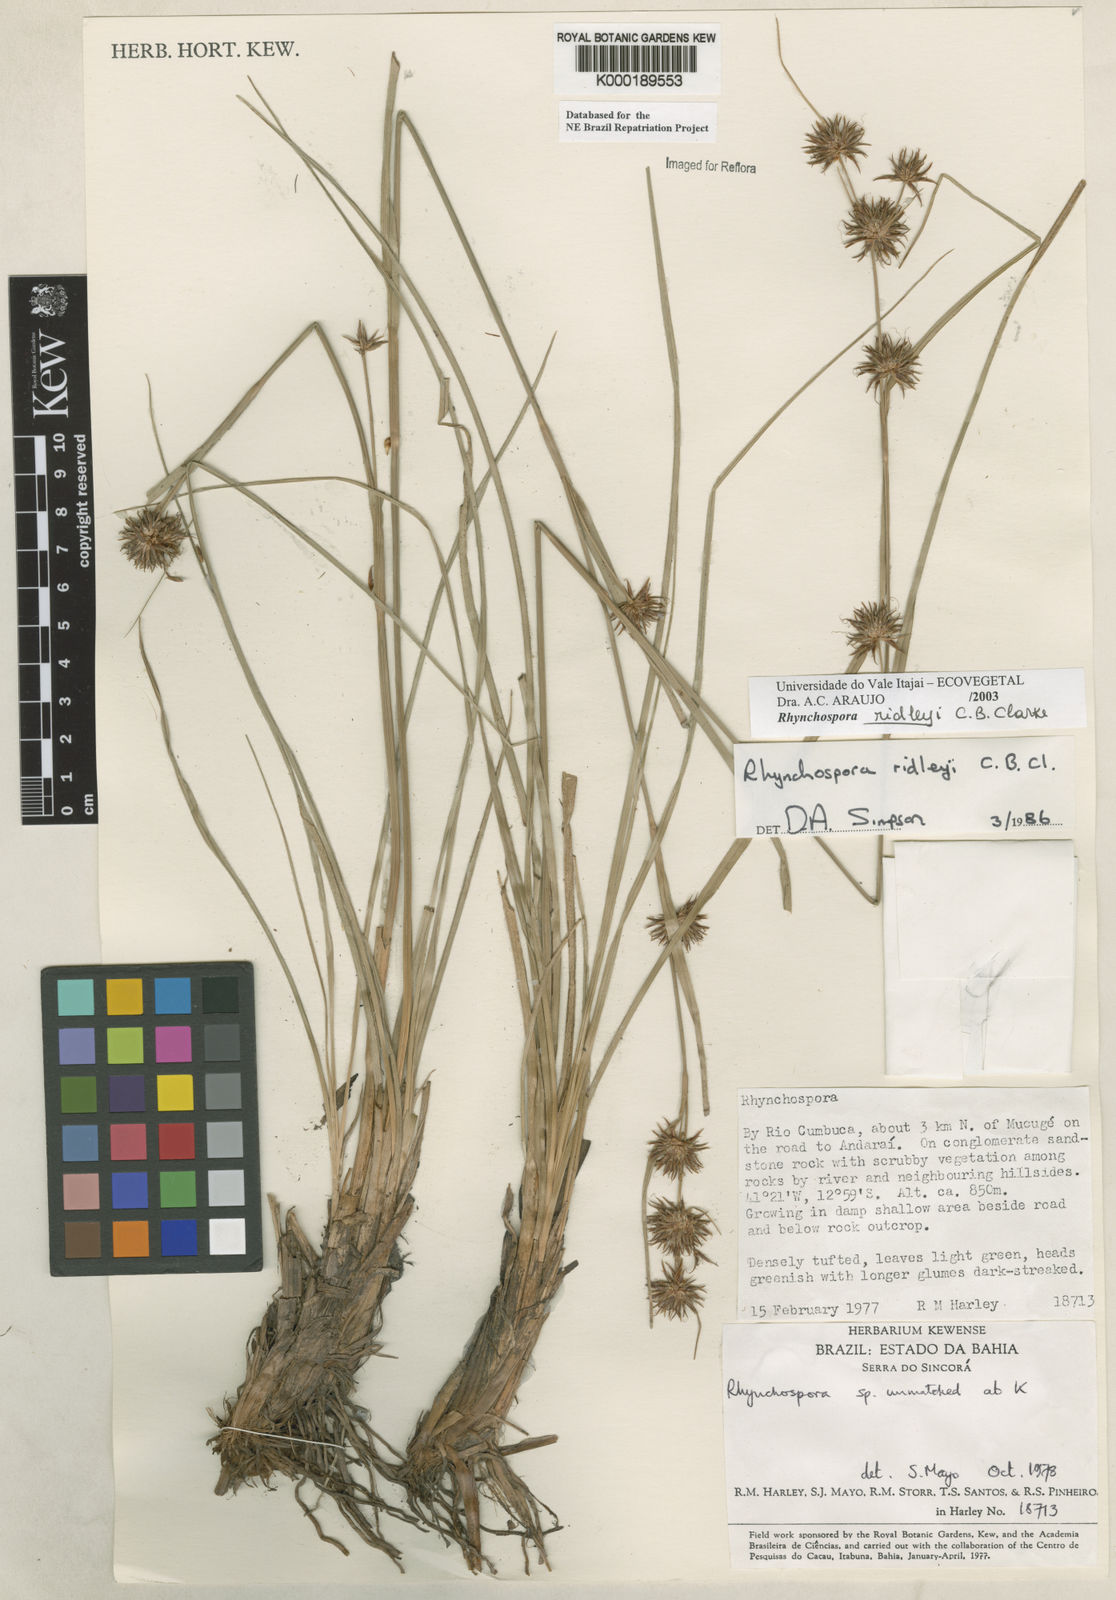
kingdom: Plantae
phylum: Tracheophyta
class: Liliopsida
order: Poales
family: Cyperaceae
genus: Rhynchospora
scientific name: Rhynchospora ridleyi
